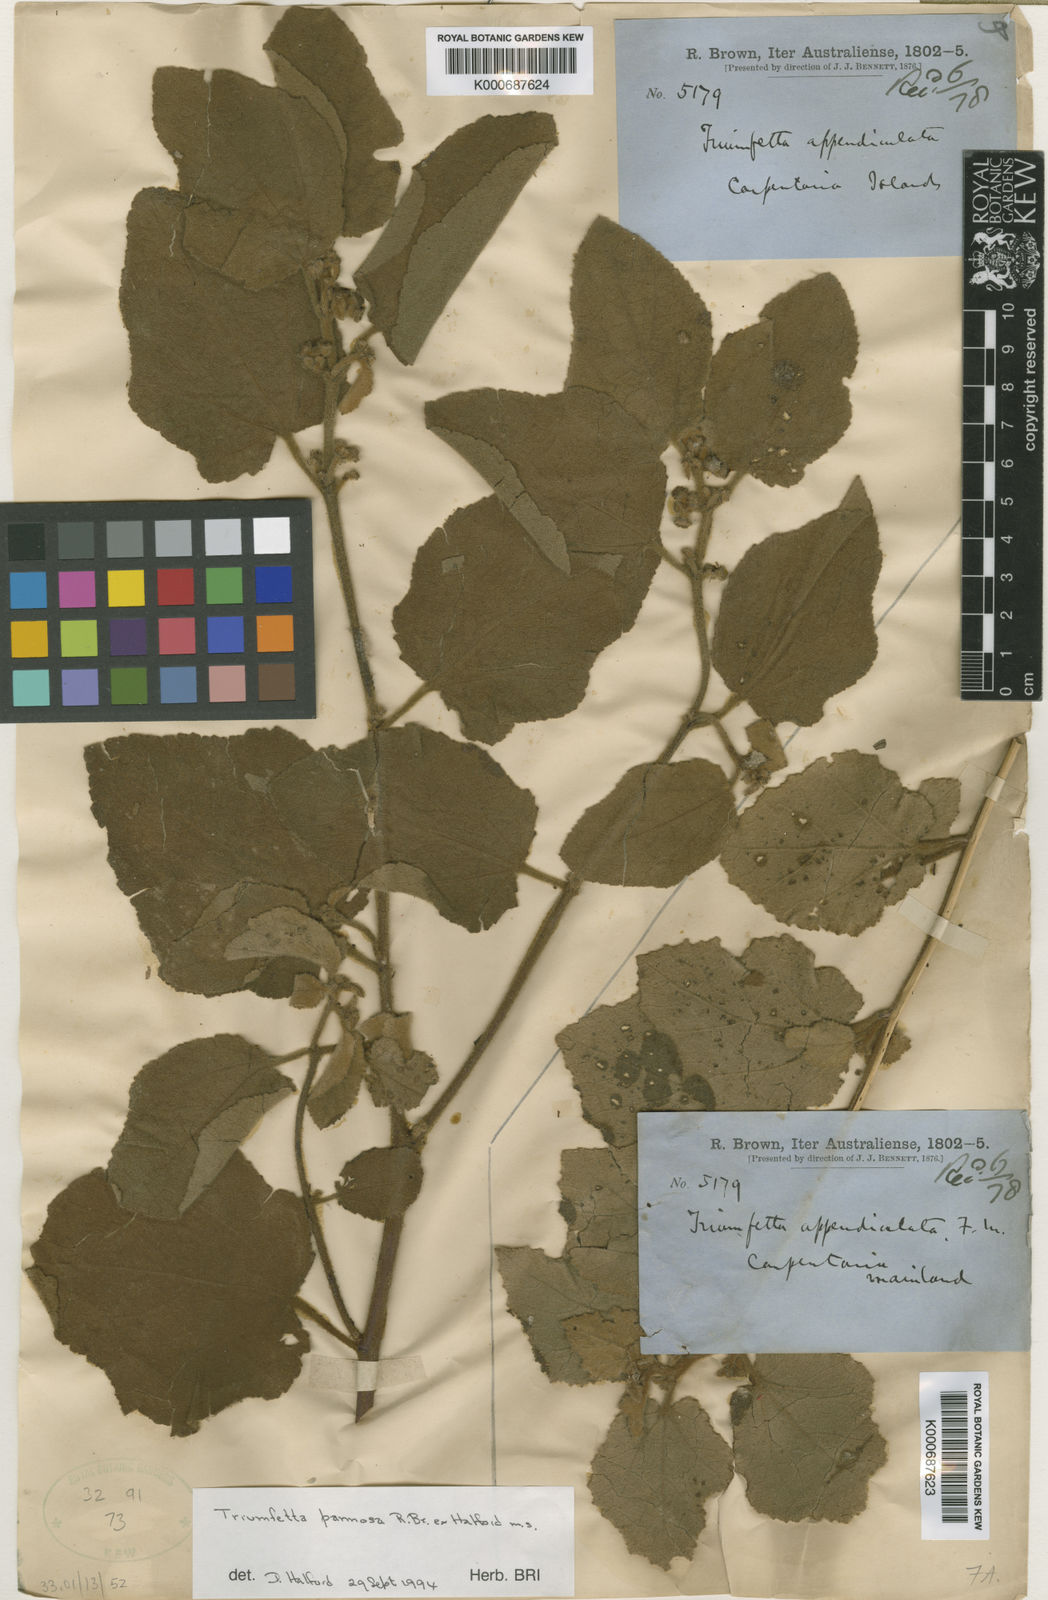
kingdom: Plantae
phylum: Tracheophyta
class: Magnoliopsida
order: Malvales
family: Malvaceae
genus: Triumfetta
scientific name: Triumfetta pannosa
